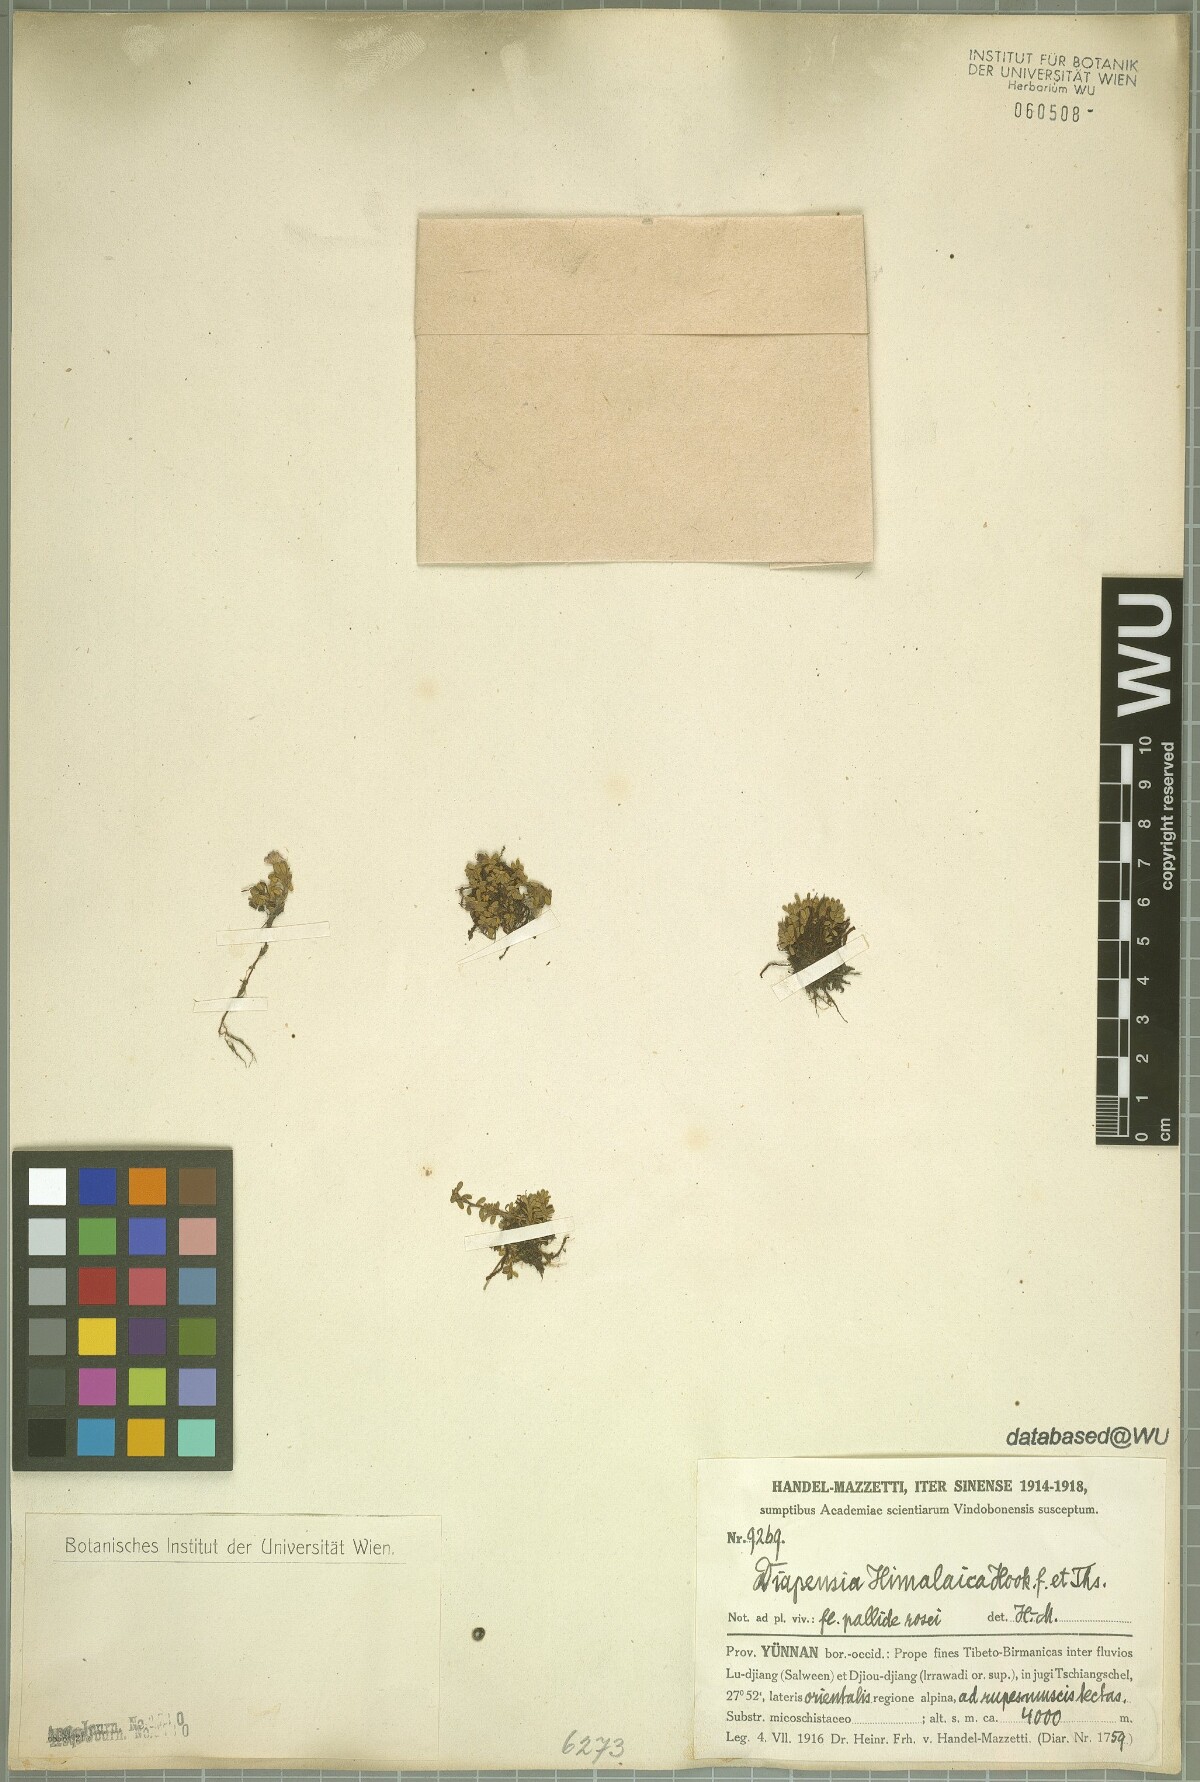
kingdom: Plantae
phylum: Tracheophyta
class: Magnoliopsida
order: Ericales
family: Diapensiaceae
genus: Diapensia
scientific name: Diapensia himalaica
